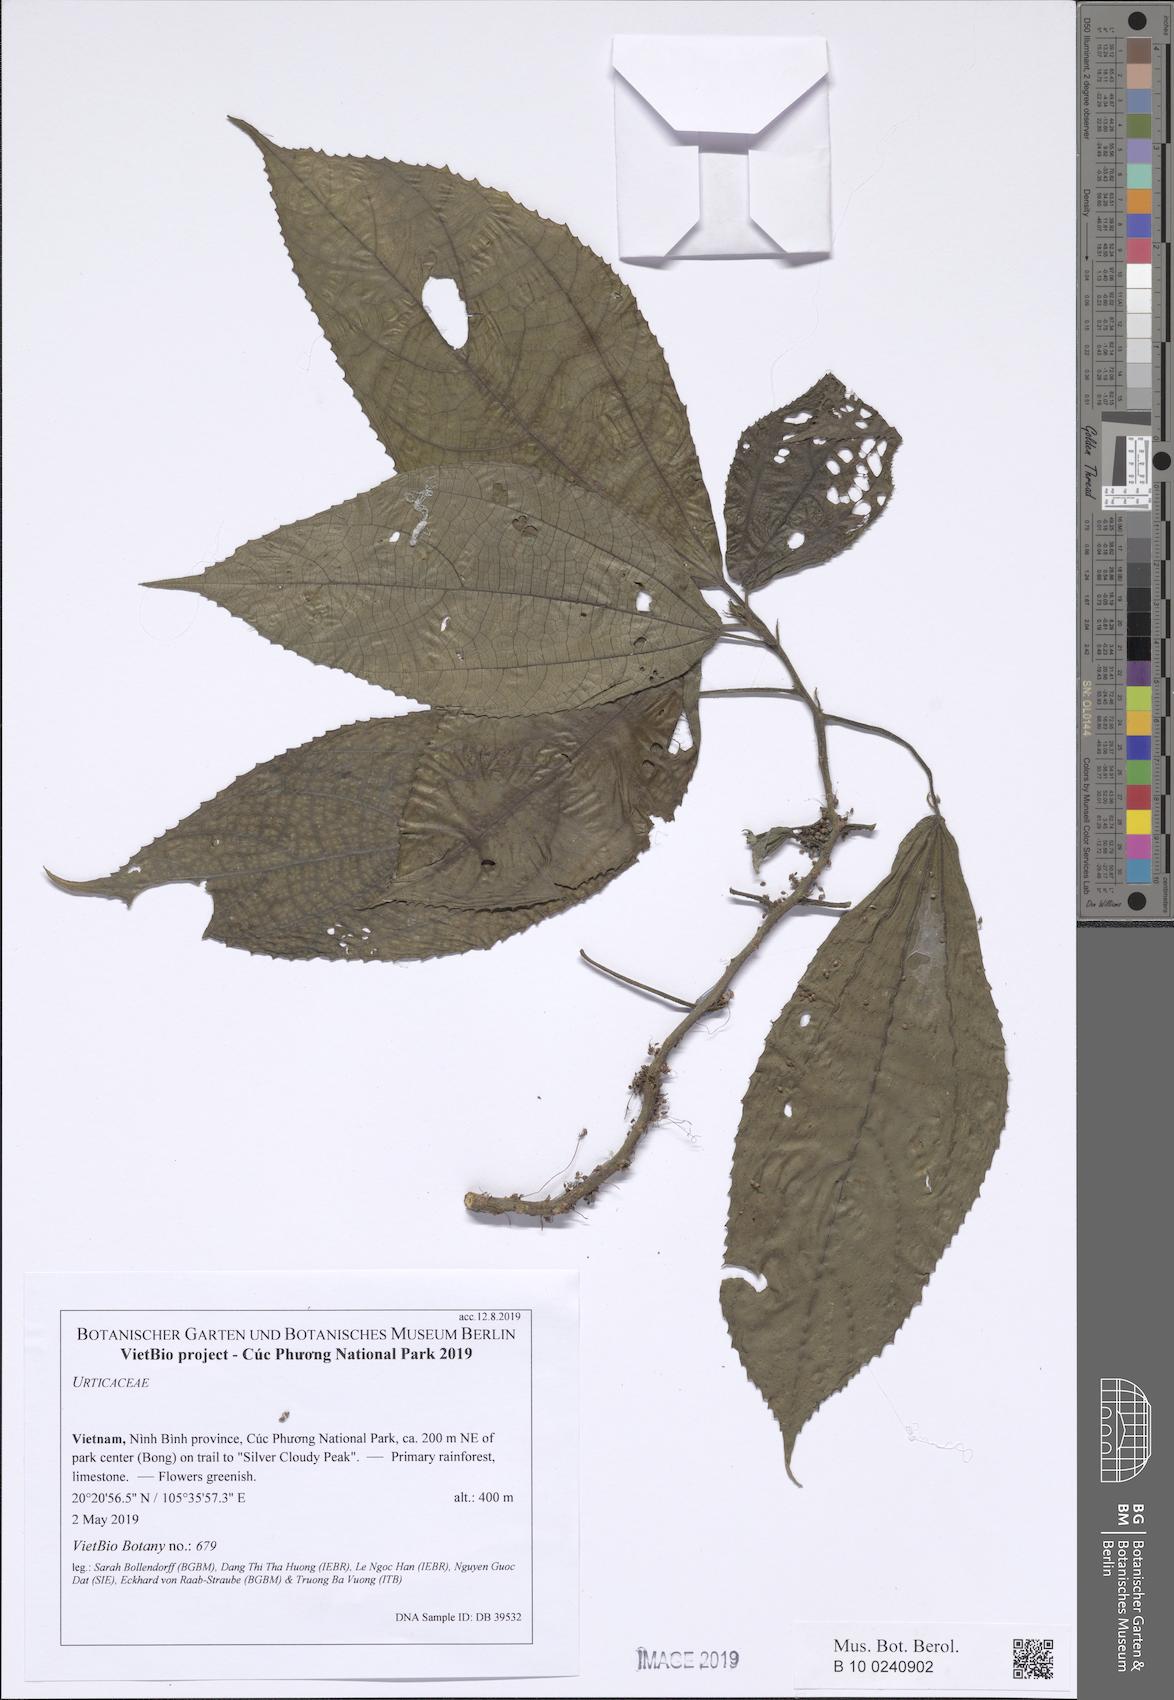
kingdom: Plantae
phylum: Tracheophyta
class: Magnoliopsida
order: Rosales
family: Urticaceae
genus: Boehmeria
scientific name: Boehmeria depauperata
